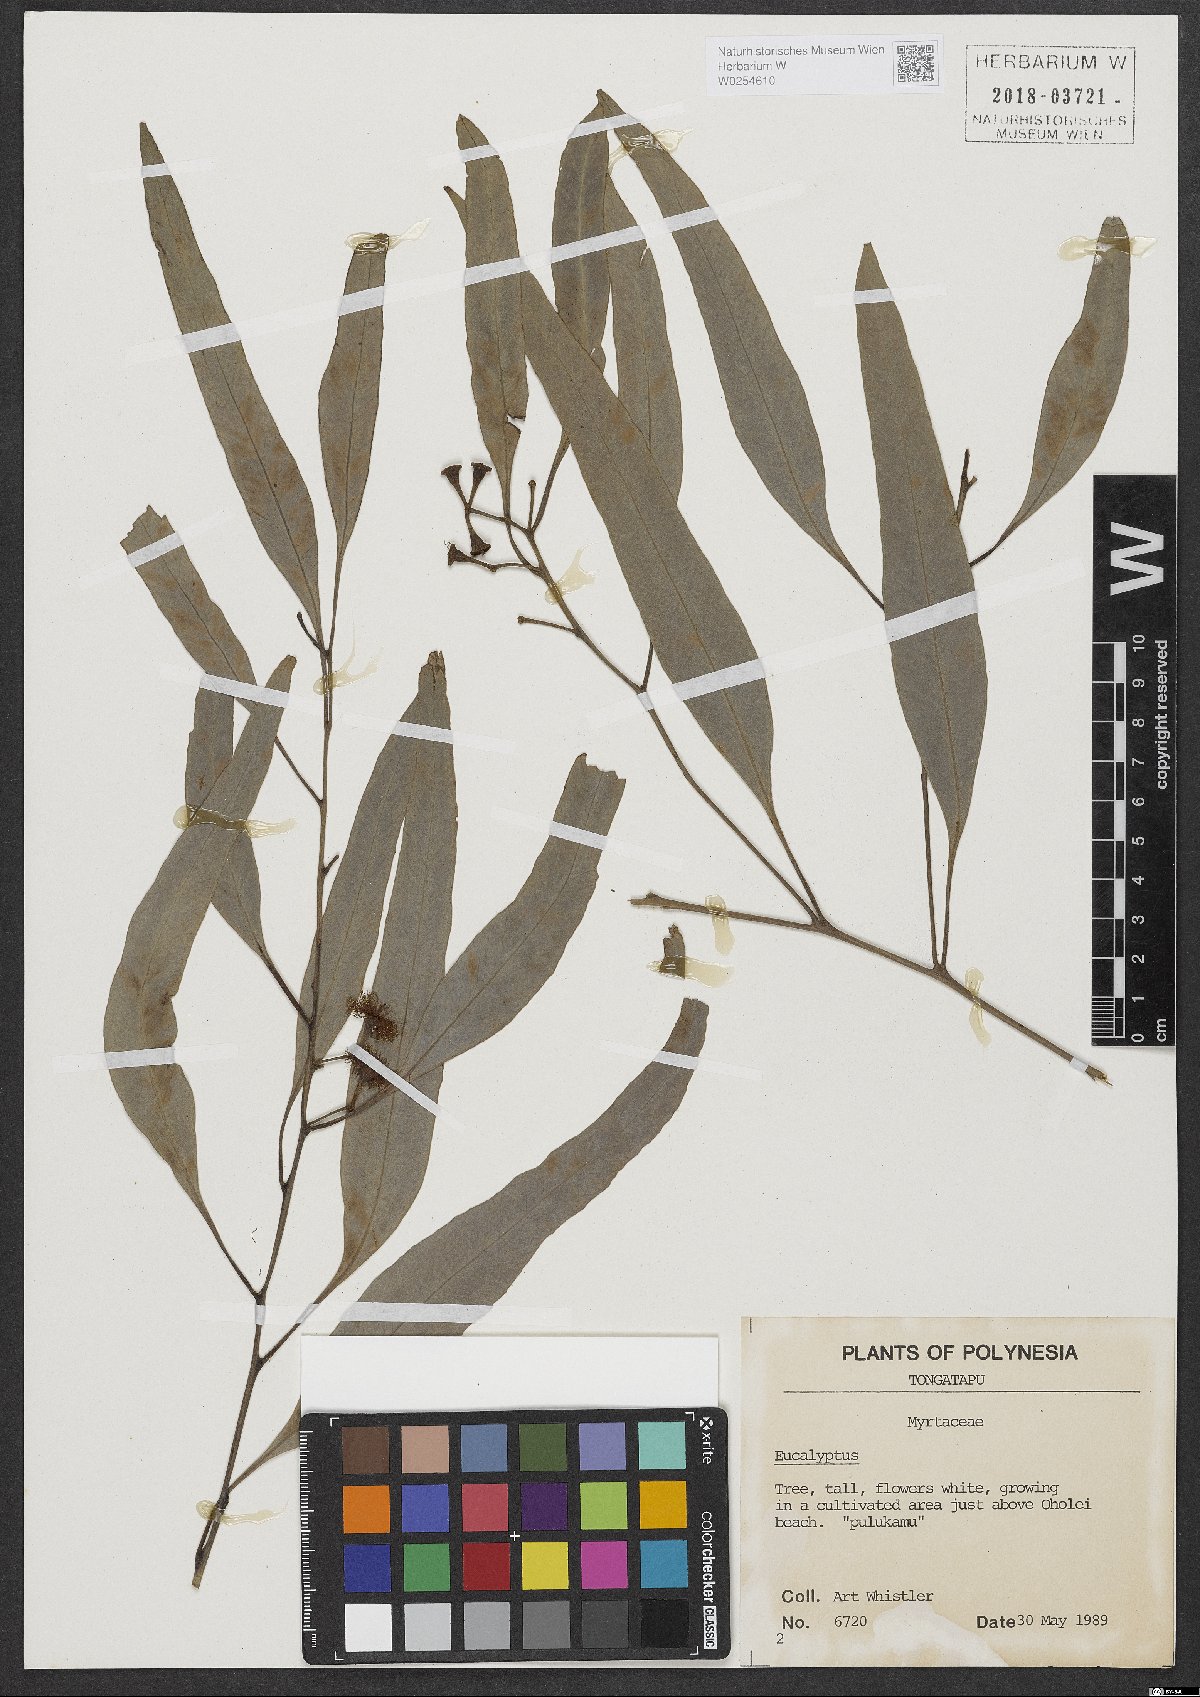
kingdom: Plantae
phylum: Tracheophyta
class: Magnoliopsida
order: Myrtales
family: Myrtaceae
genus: Eucalyptus
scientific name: Eucalyptus
